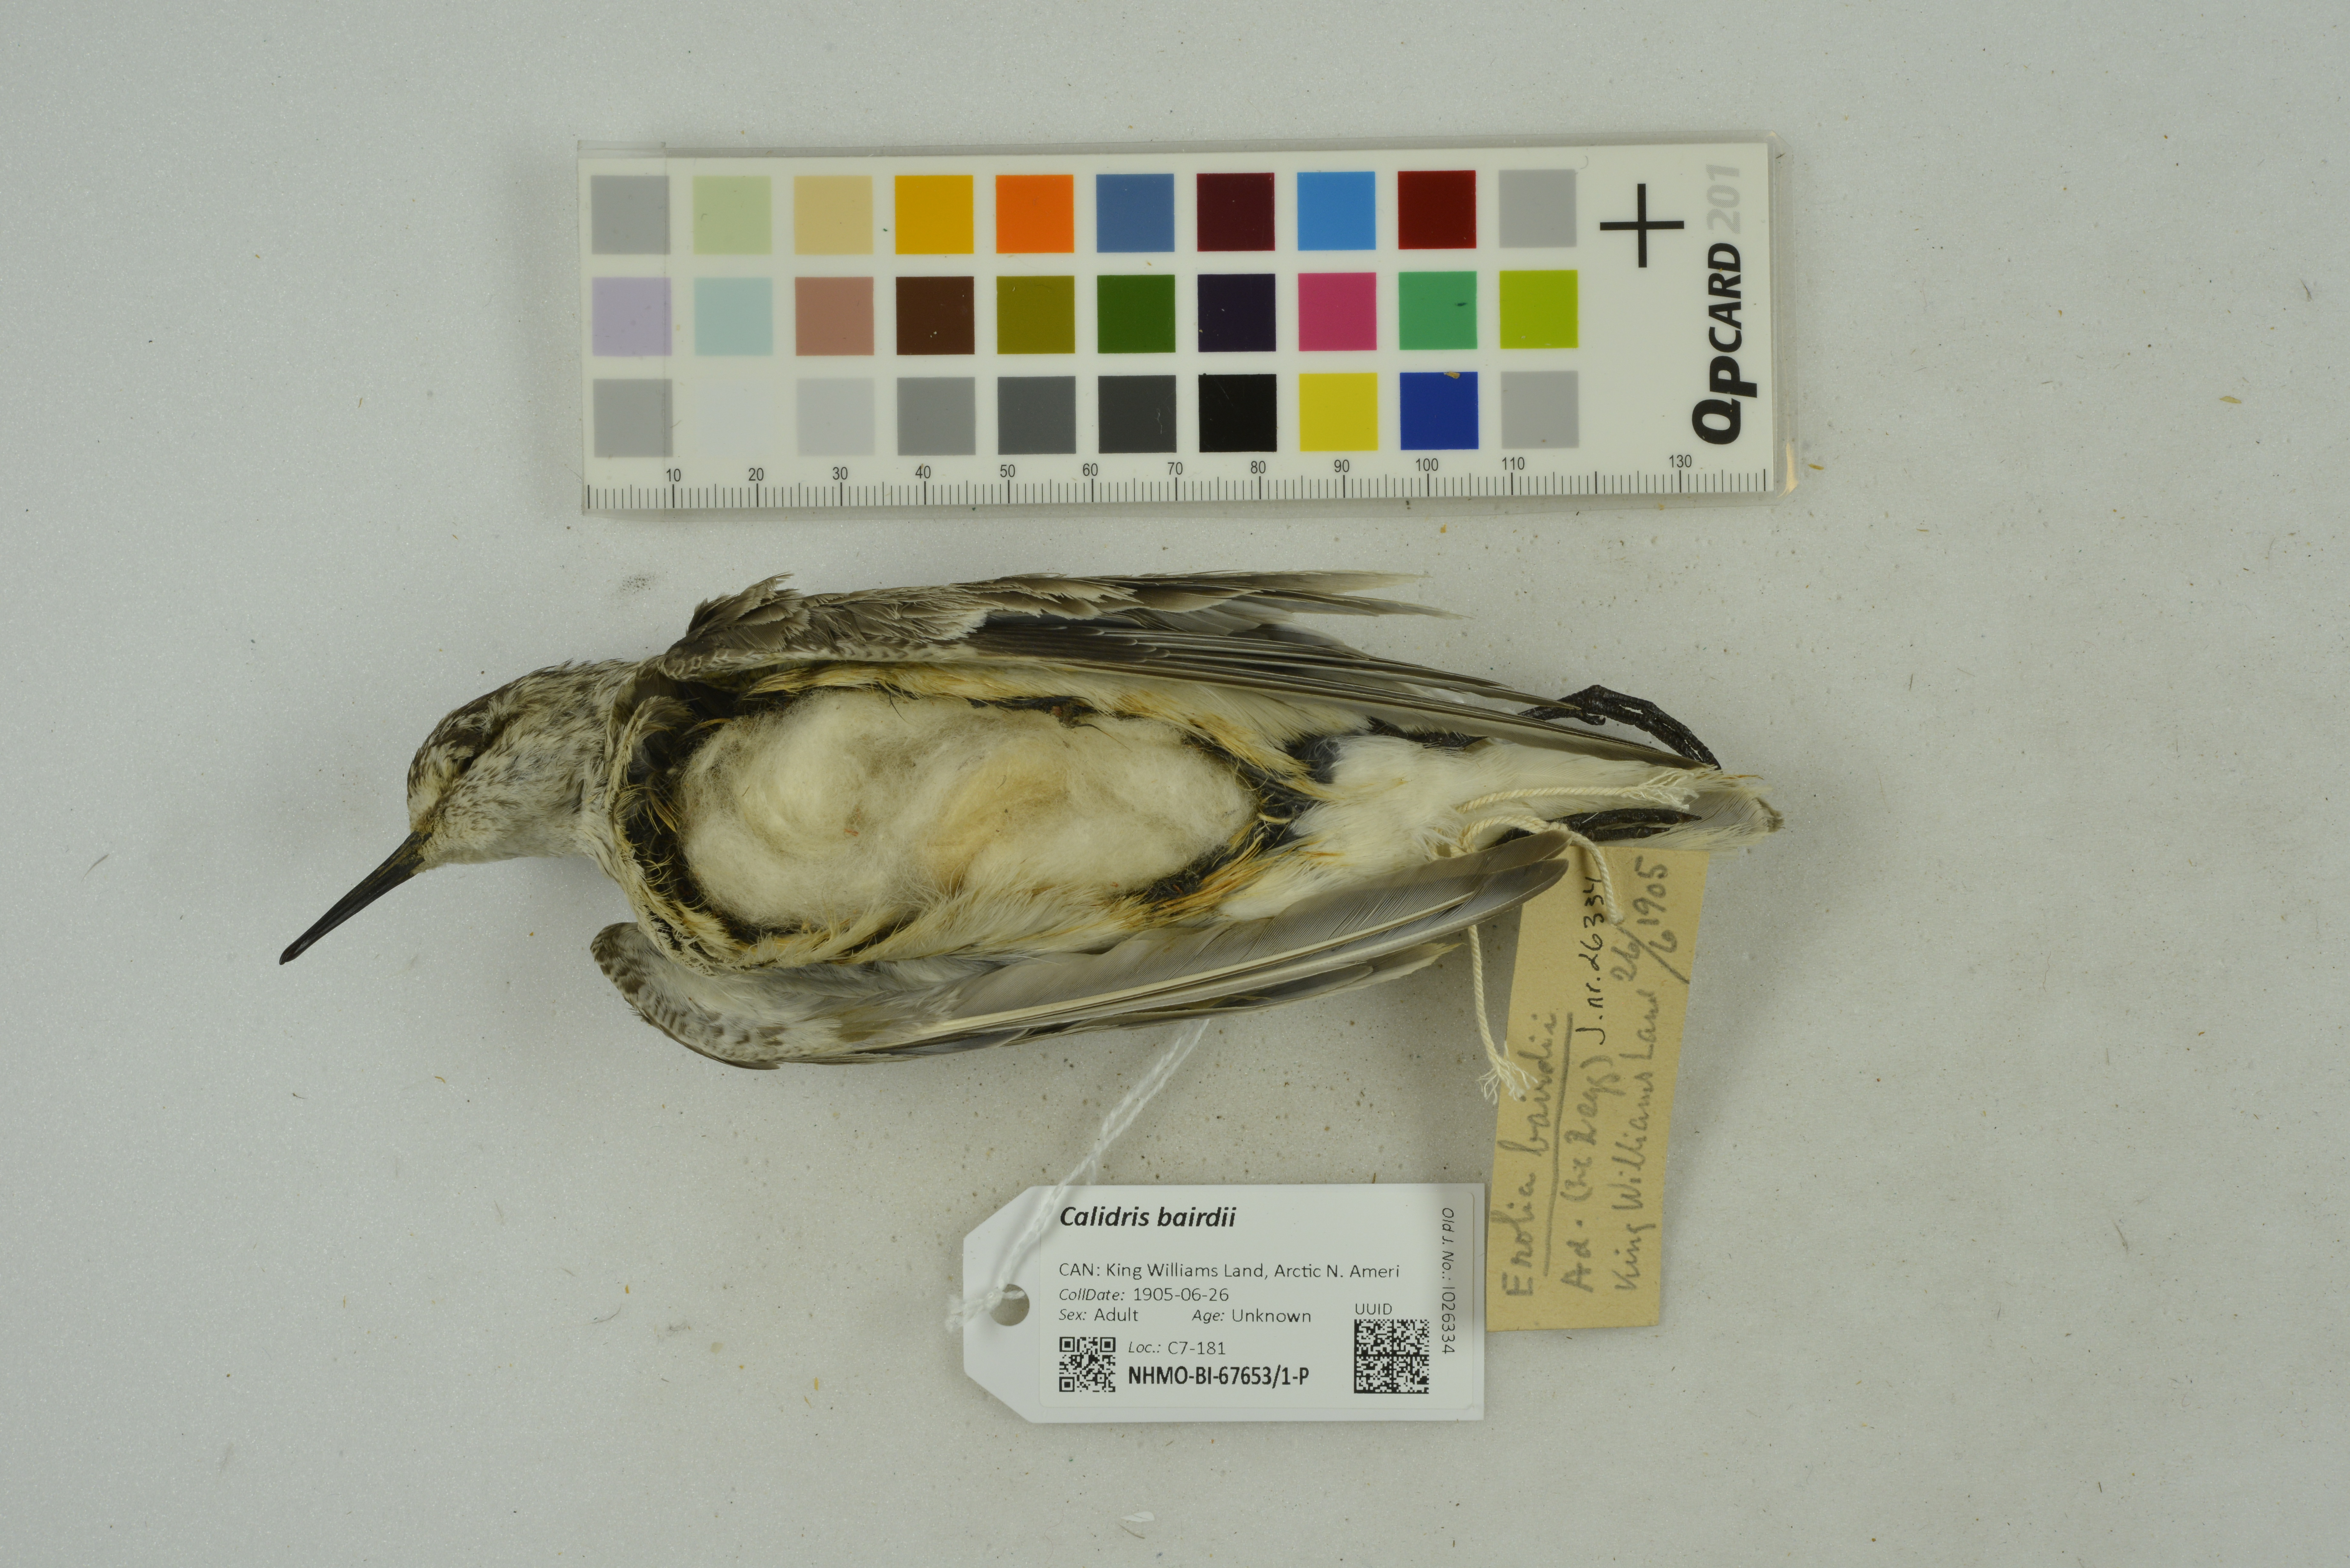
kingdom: Animalia
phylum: Chordata
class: Aves
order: Charadriiformes
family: Scolopacidae
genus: Calidris
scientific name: Calidris bairdii
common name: Baird's sandpiper
